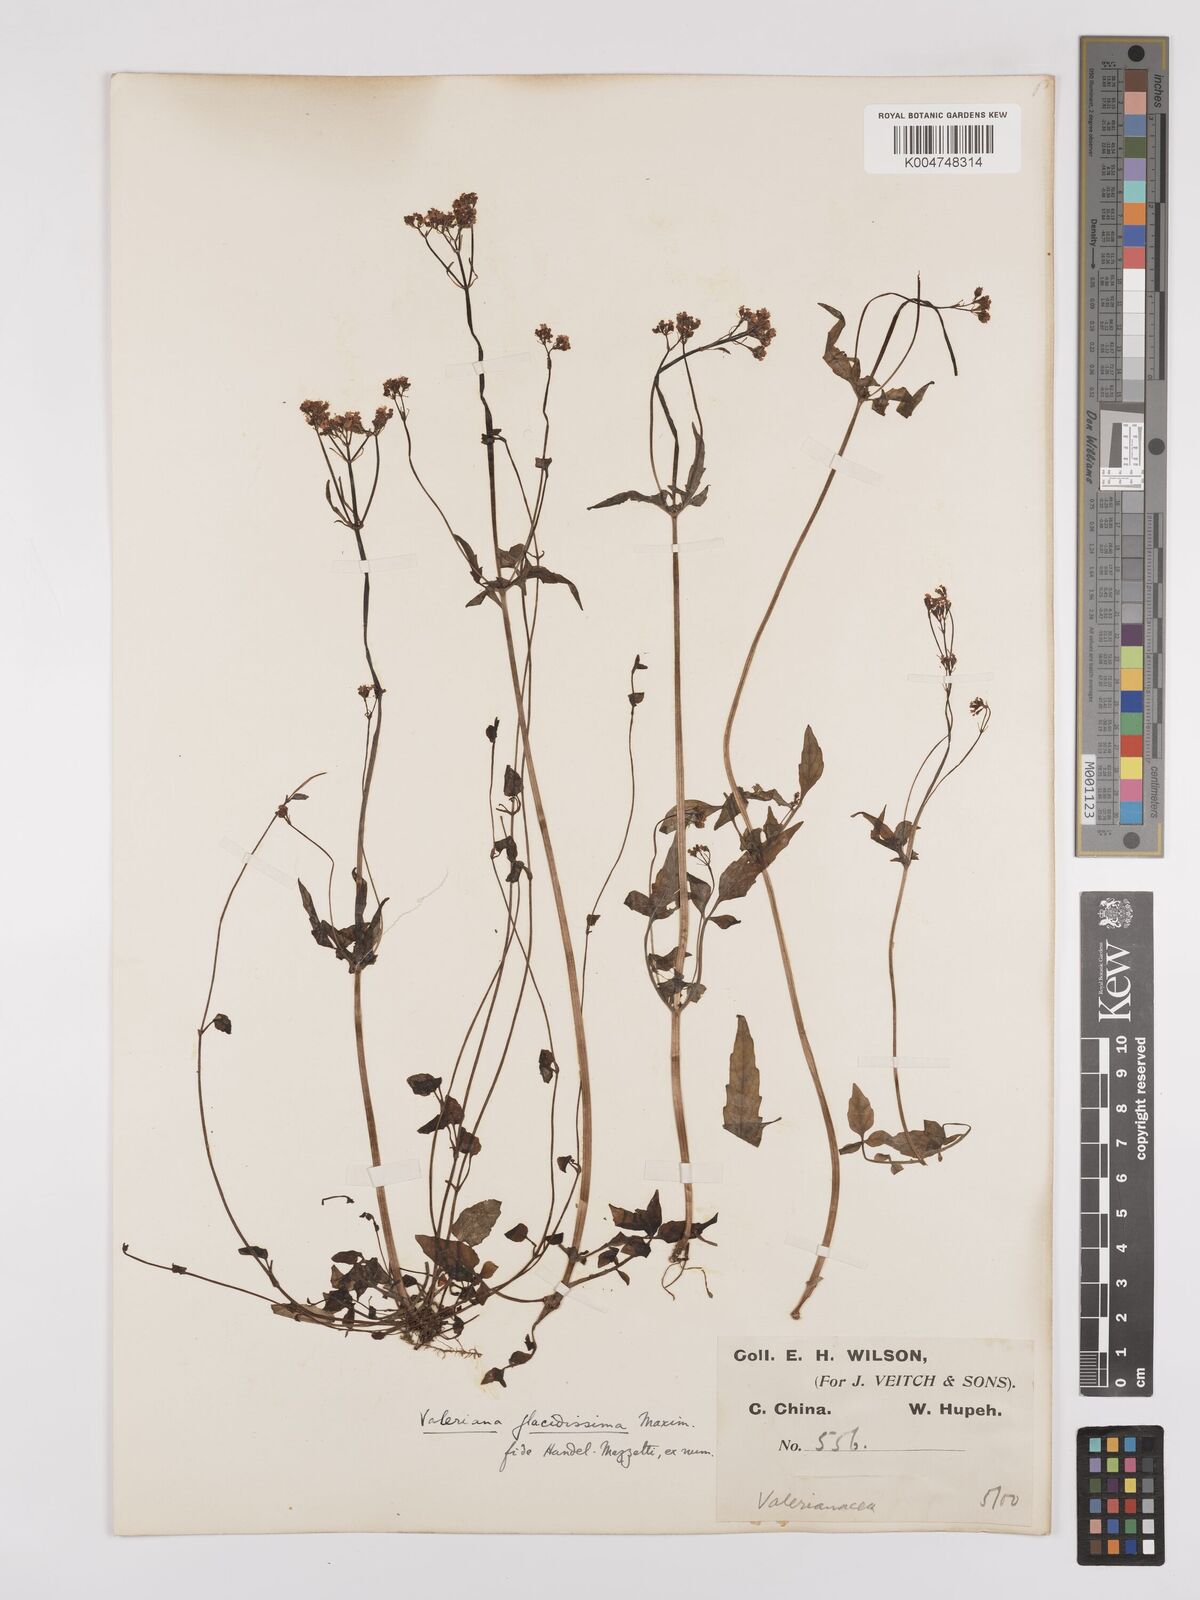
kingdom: Plantae
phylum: Tracheophyta
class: Magnoliopsida
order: Dipsacales
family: Caprifoliaceae
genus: Valeriana
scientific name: Valeriana flaccidissima
